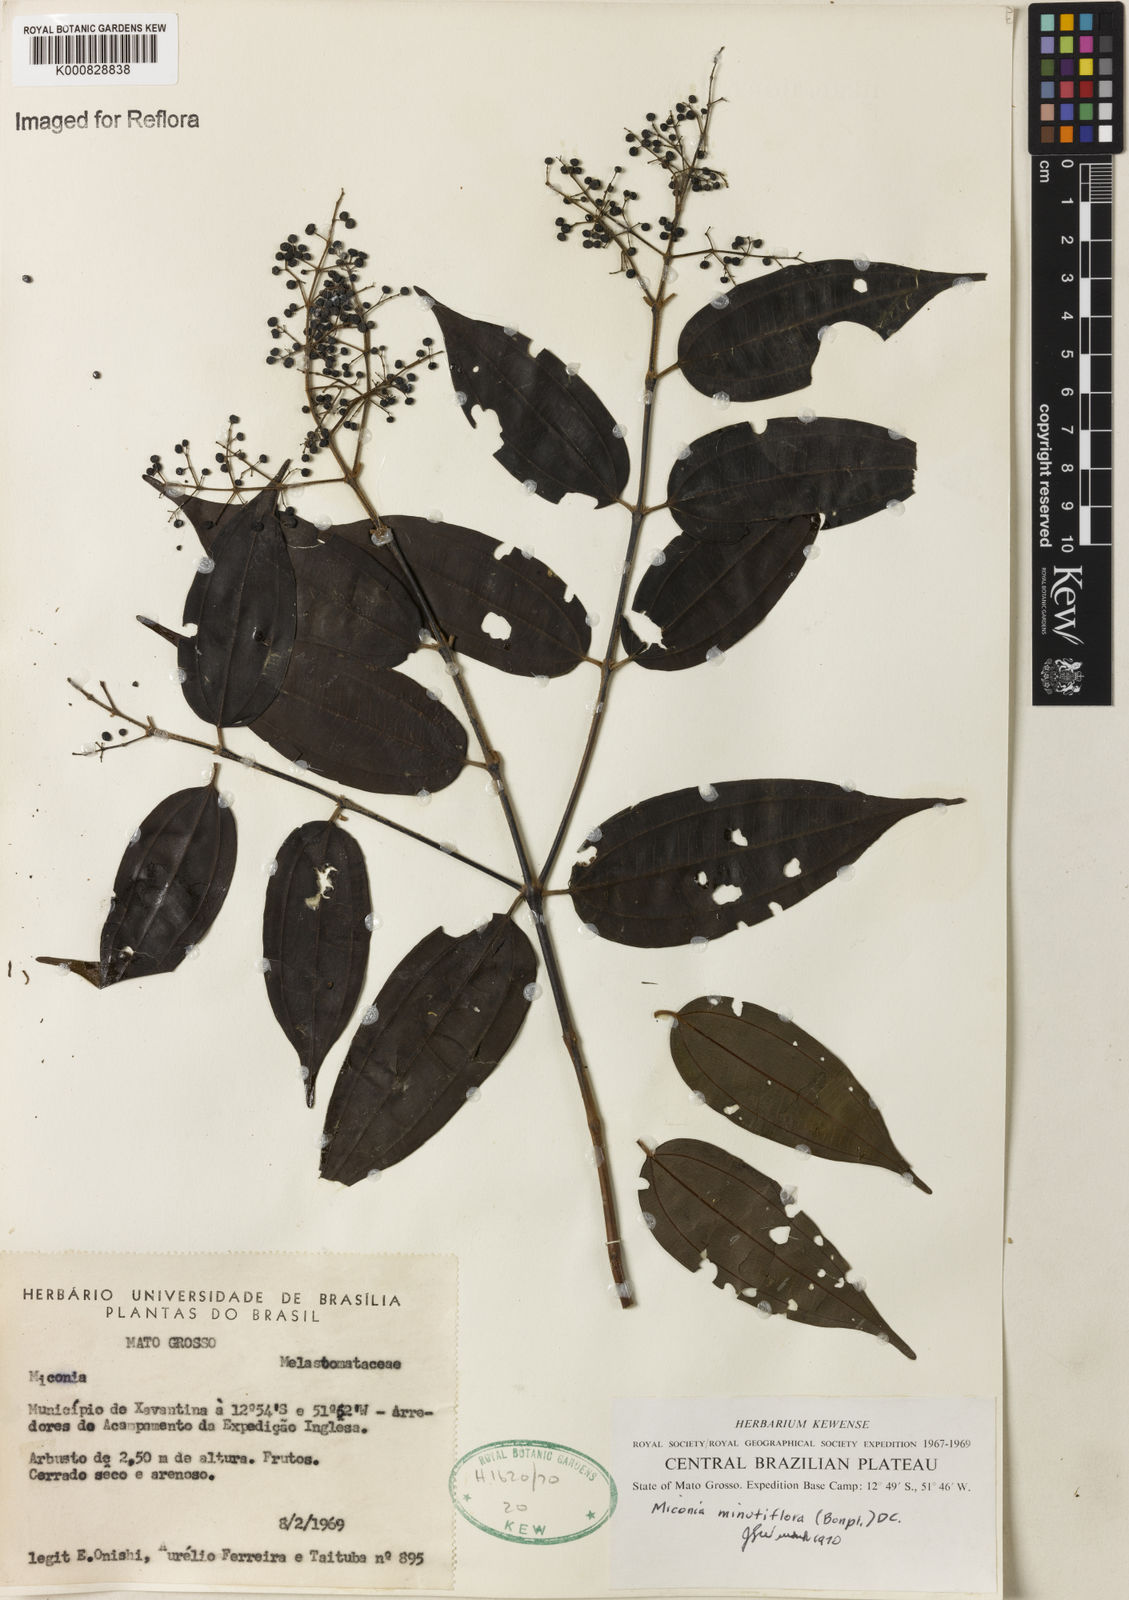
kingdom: Plantae
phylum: Tracheophyta
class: Magnoliopsida
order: Myrtales
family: Melastomataceae
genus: Miconia
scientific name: Miconia minutiflora
